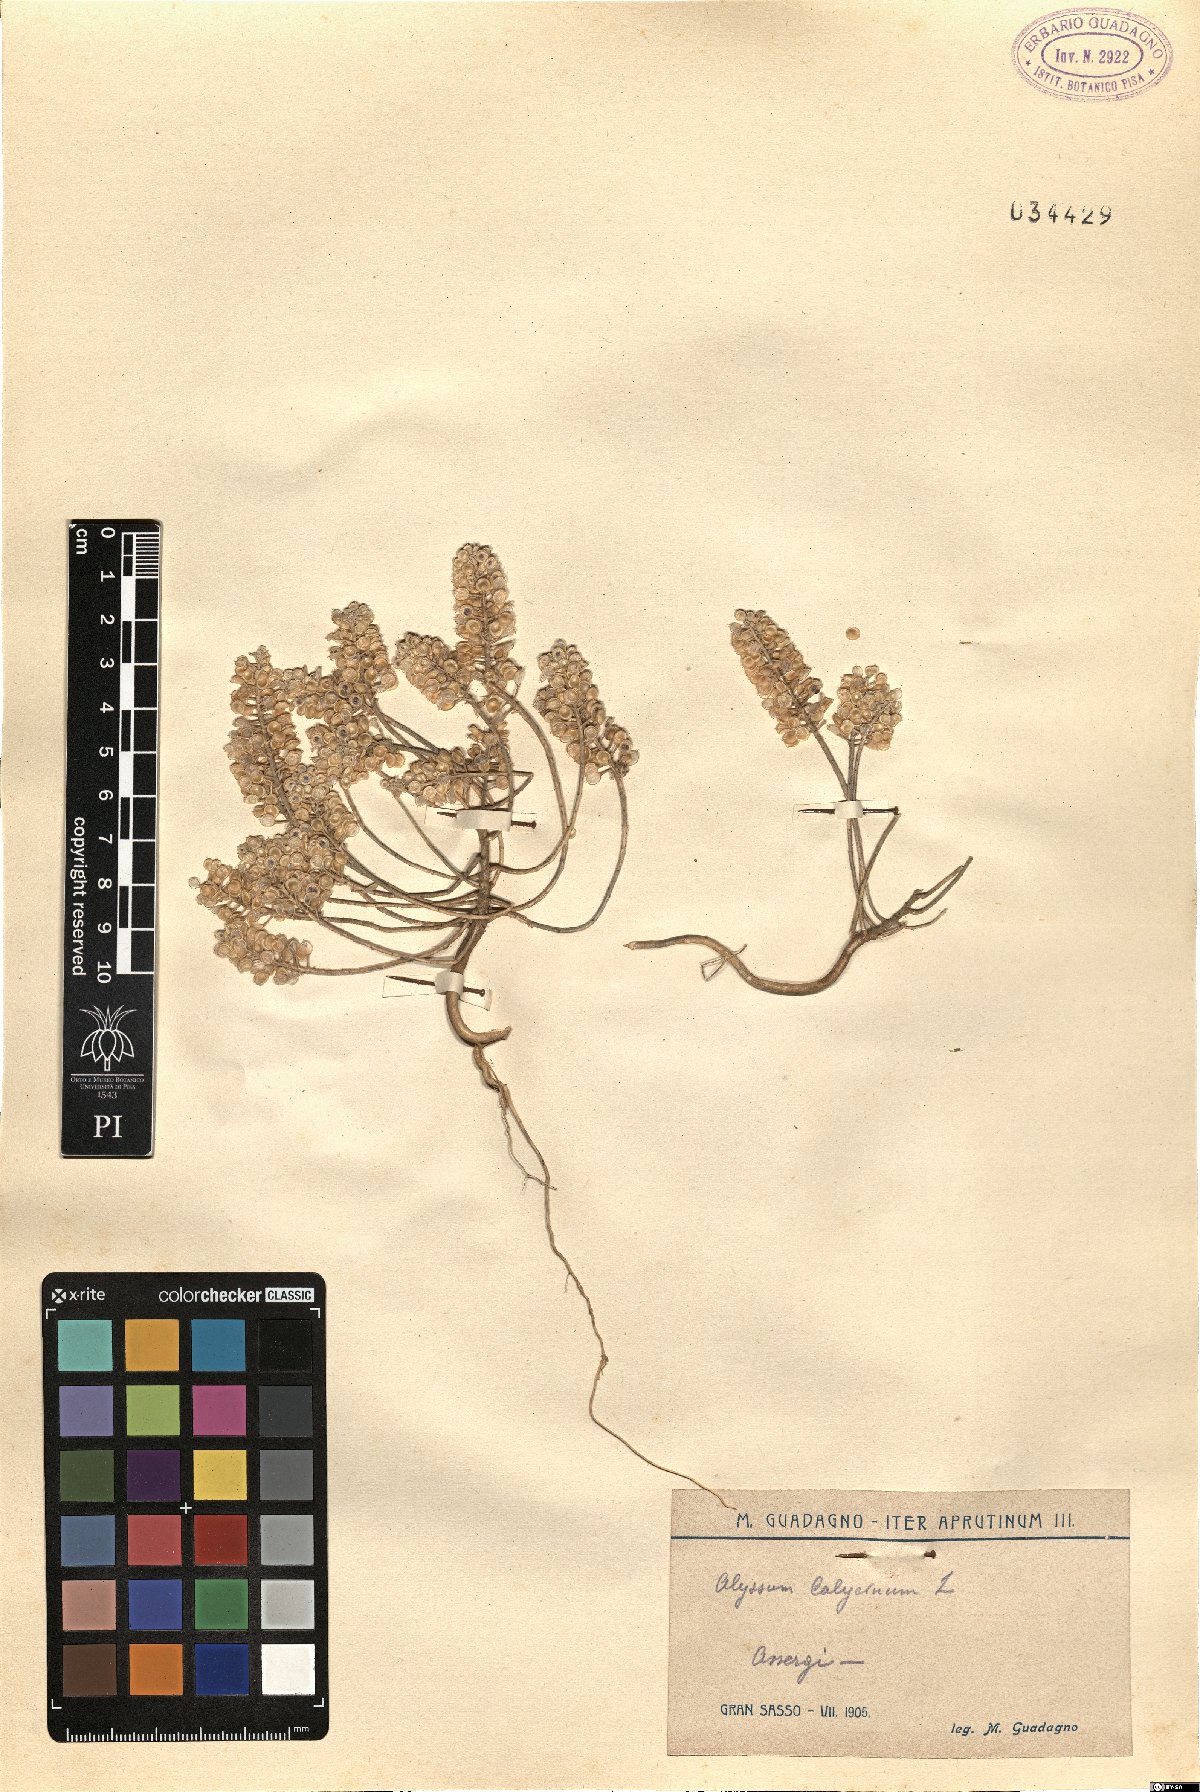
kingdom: Plantae
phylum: Tracheophyta
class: Magnoliopsida
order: Brassicales
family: Brassicaceae
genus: Alyssum
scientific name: Alyssum alyssoides
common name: Small alison
